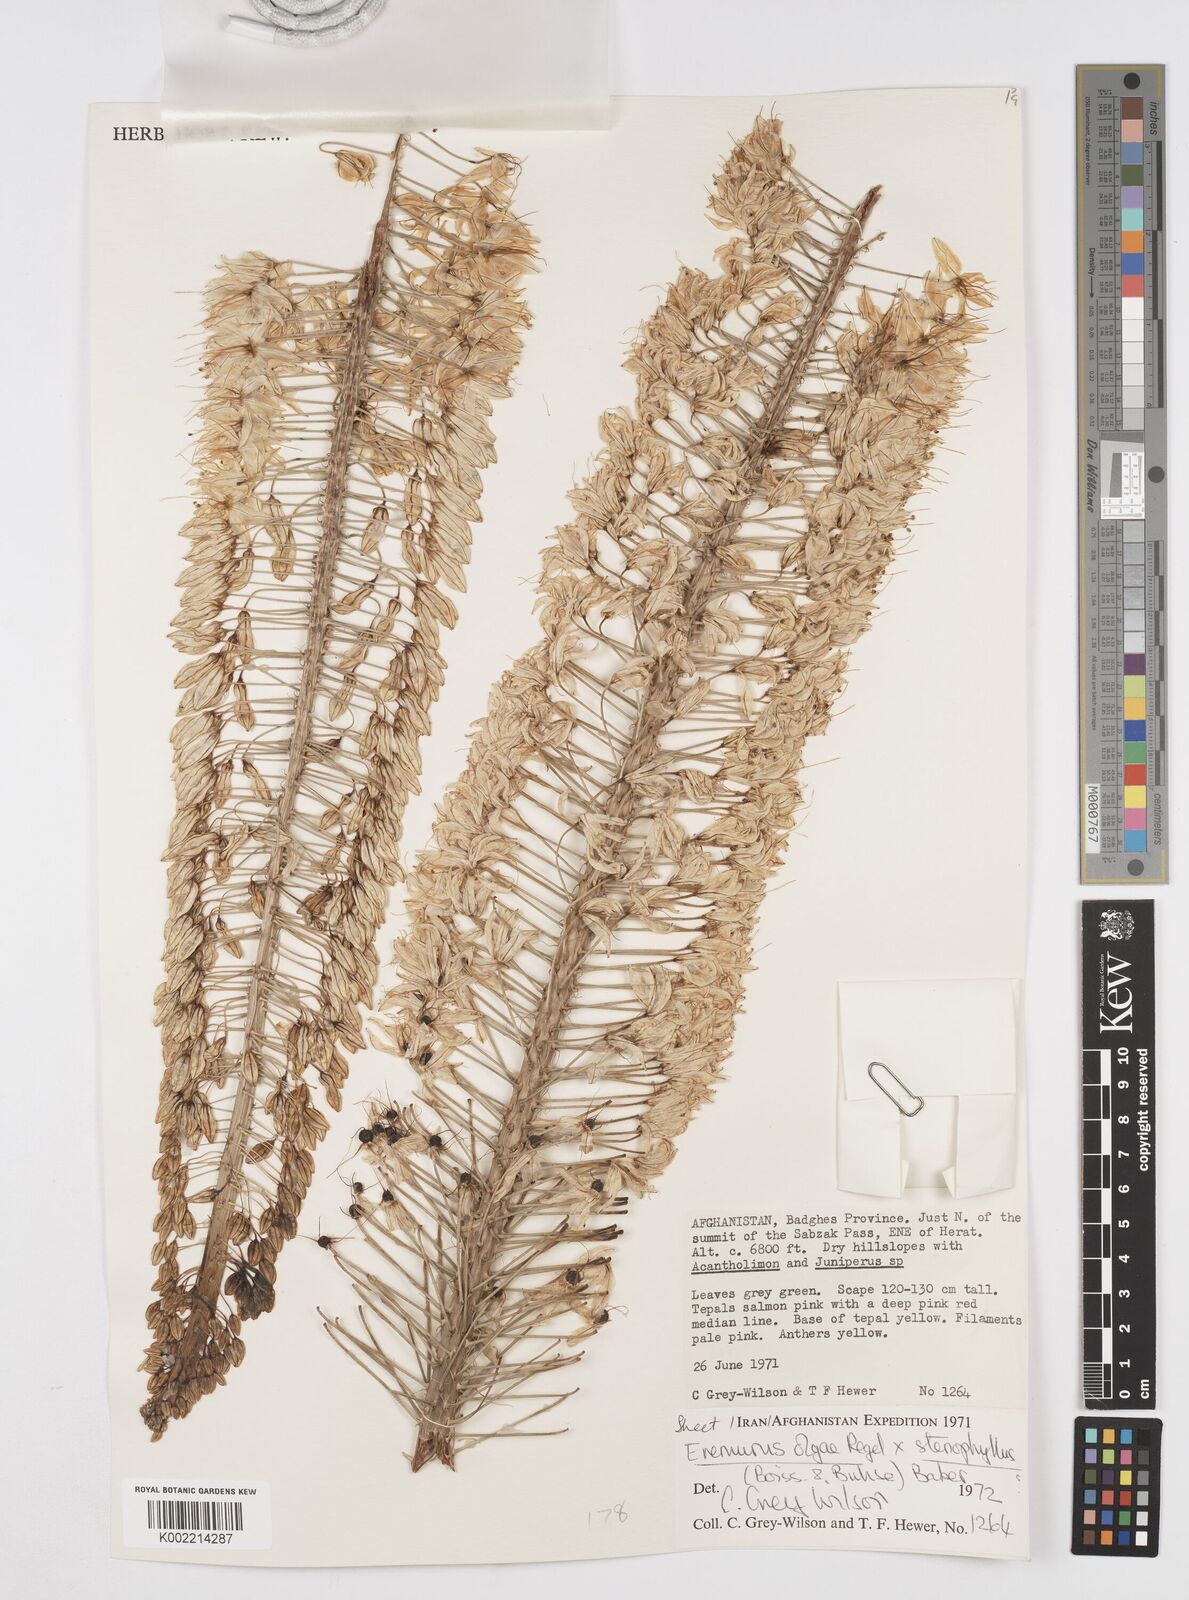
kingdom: Plantae
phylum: Tracheophyta
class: Liliopsida
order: Asparagales
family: Asphodelaceae
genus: Eremurus
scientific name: Eremurus olgae
